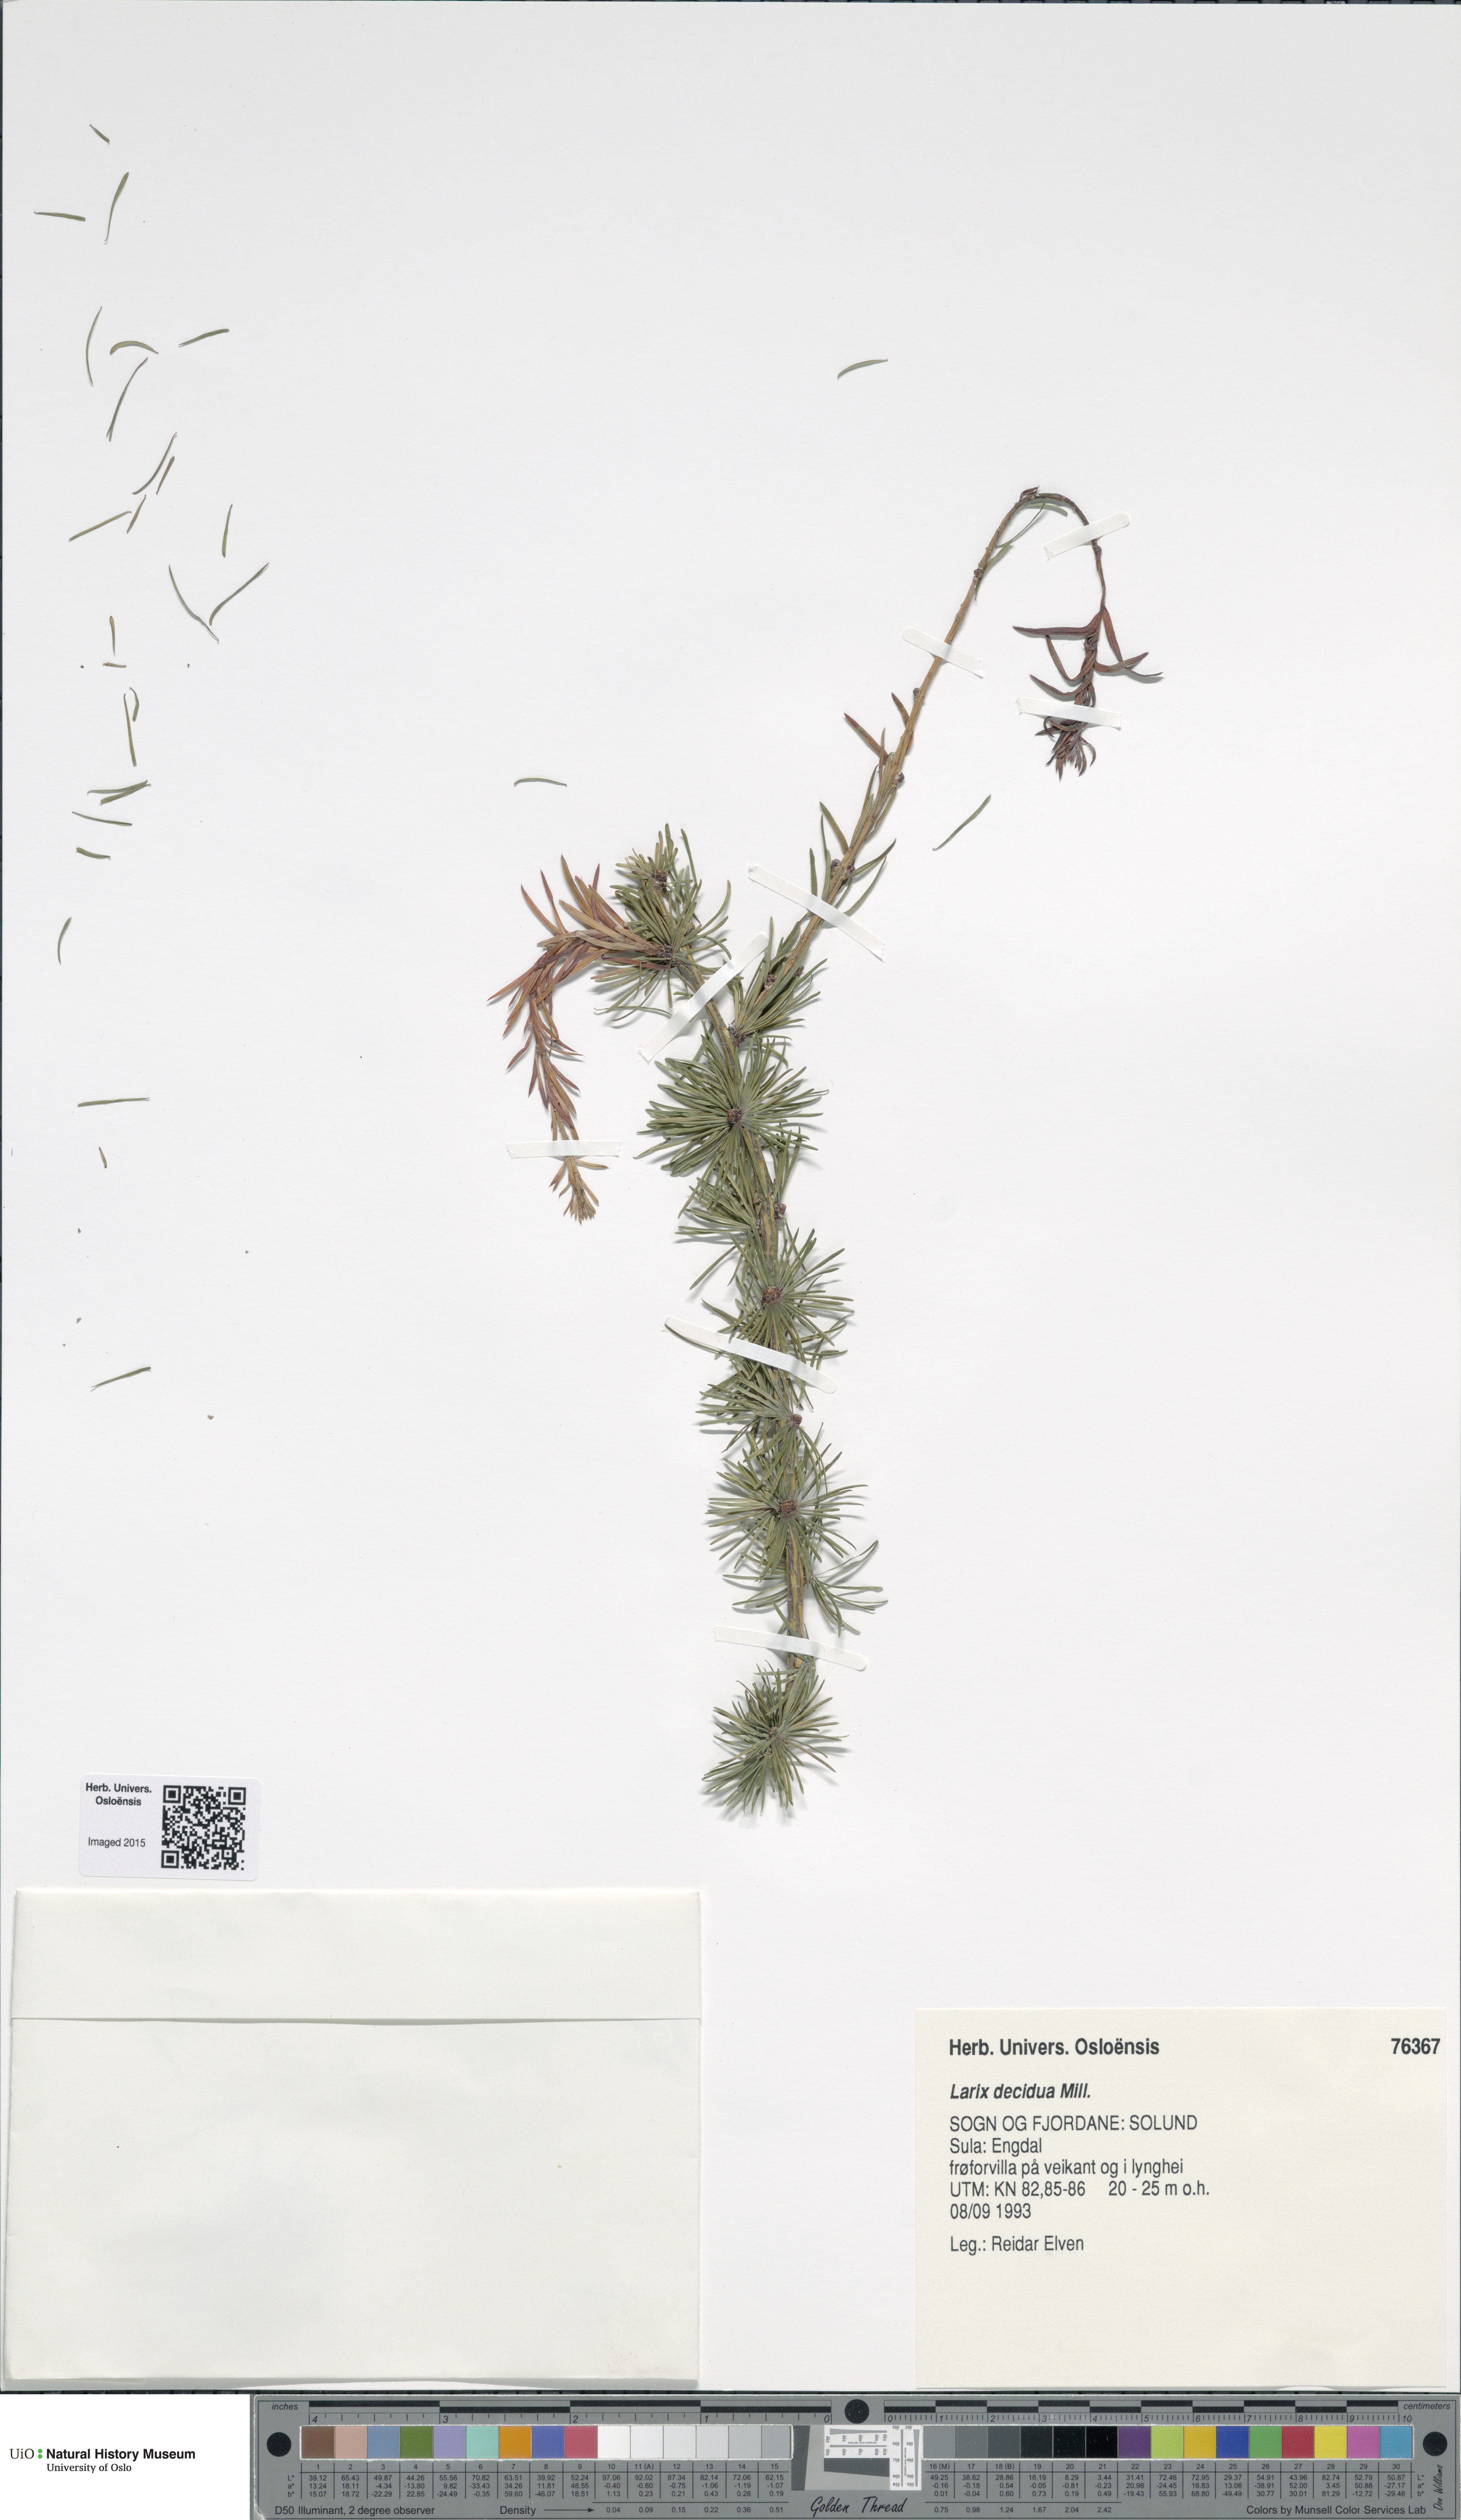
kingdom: Plantae
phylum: Tracheophyta
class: Pinopsida
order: Pinales
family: Pinaceae
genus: Larix
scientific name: Larix decidua
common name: European larch
